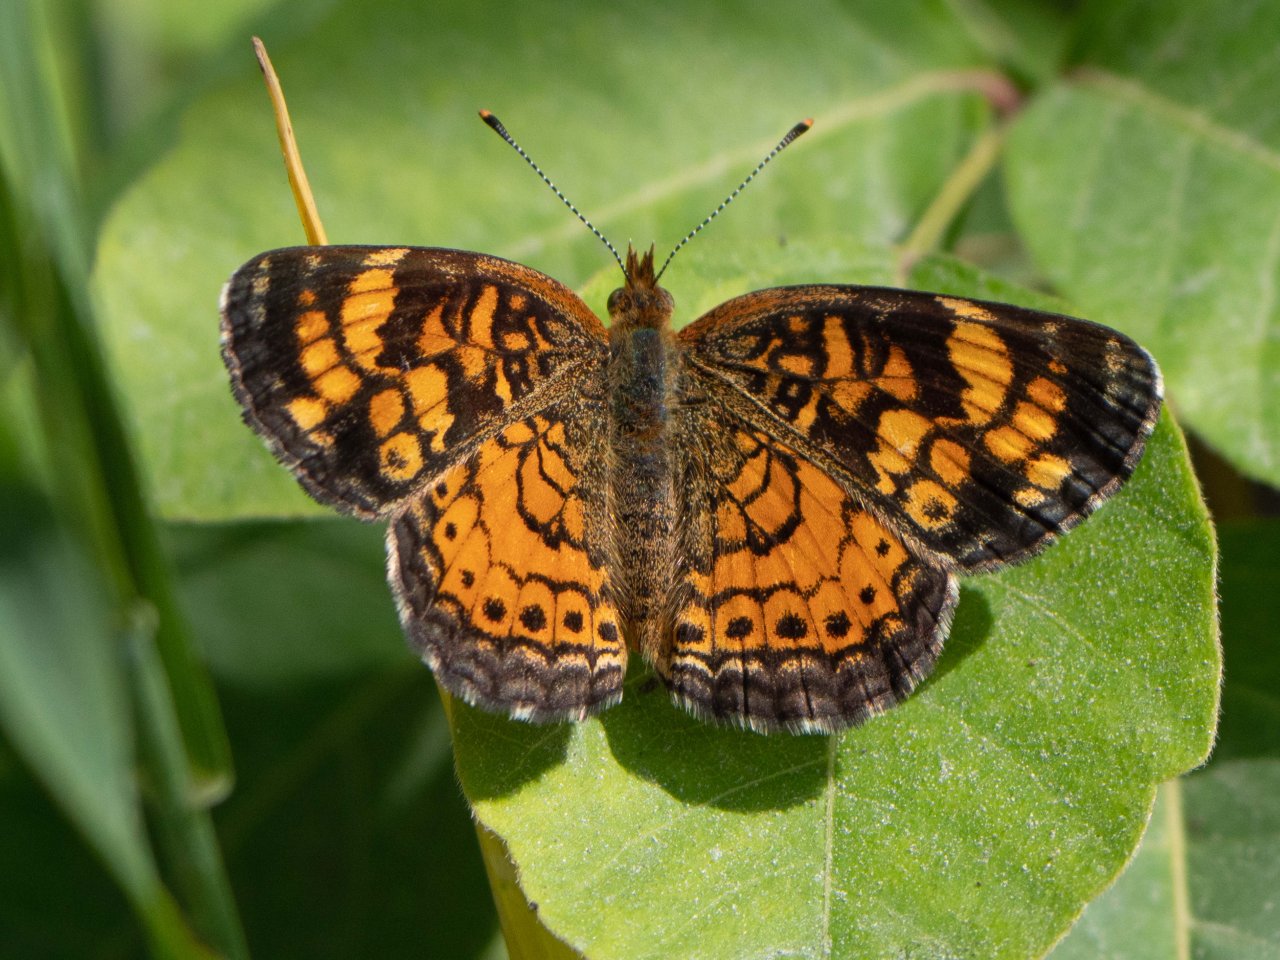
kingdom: Animalia
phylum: Arthropoda
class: Insecta
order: Lepidoptera
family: Nymphalidae
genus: Phyciodes
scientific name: Phyciodes
